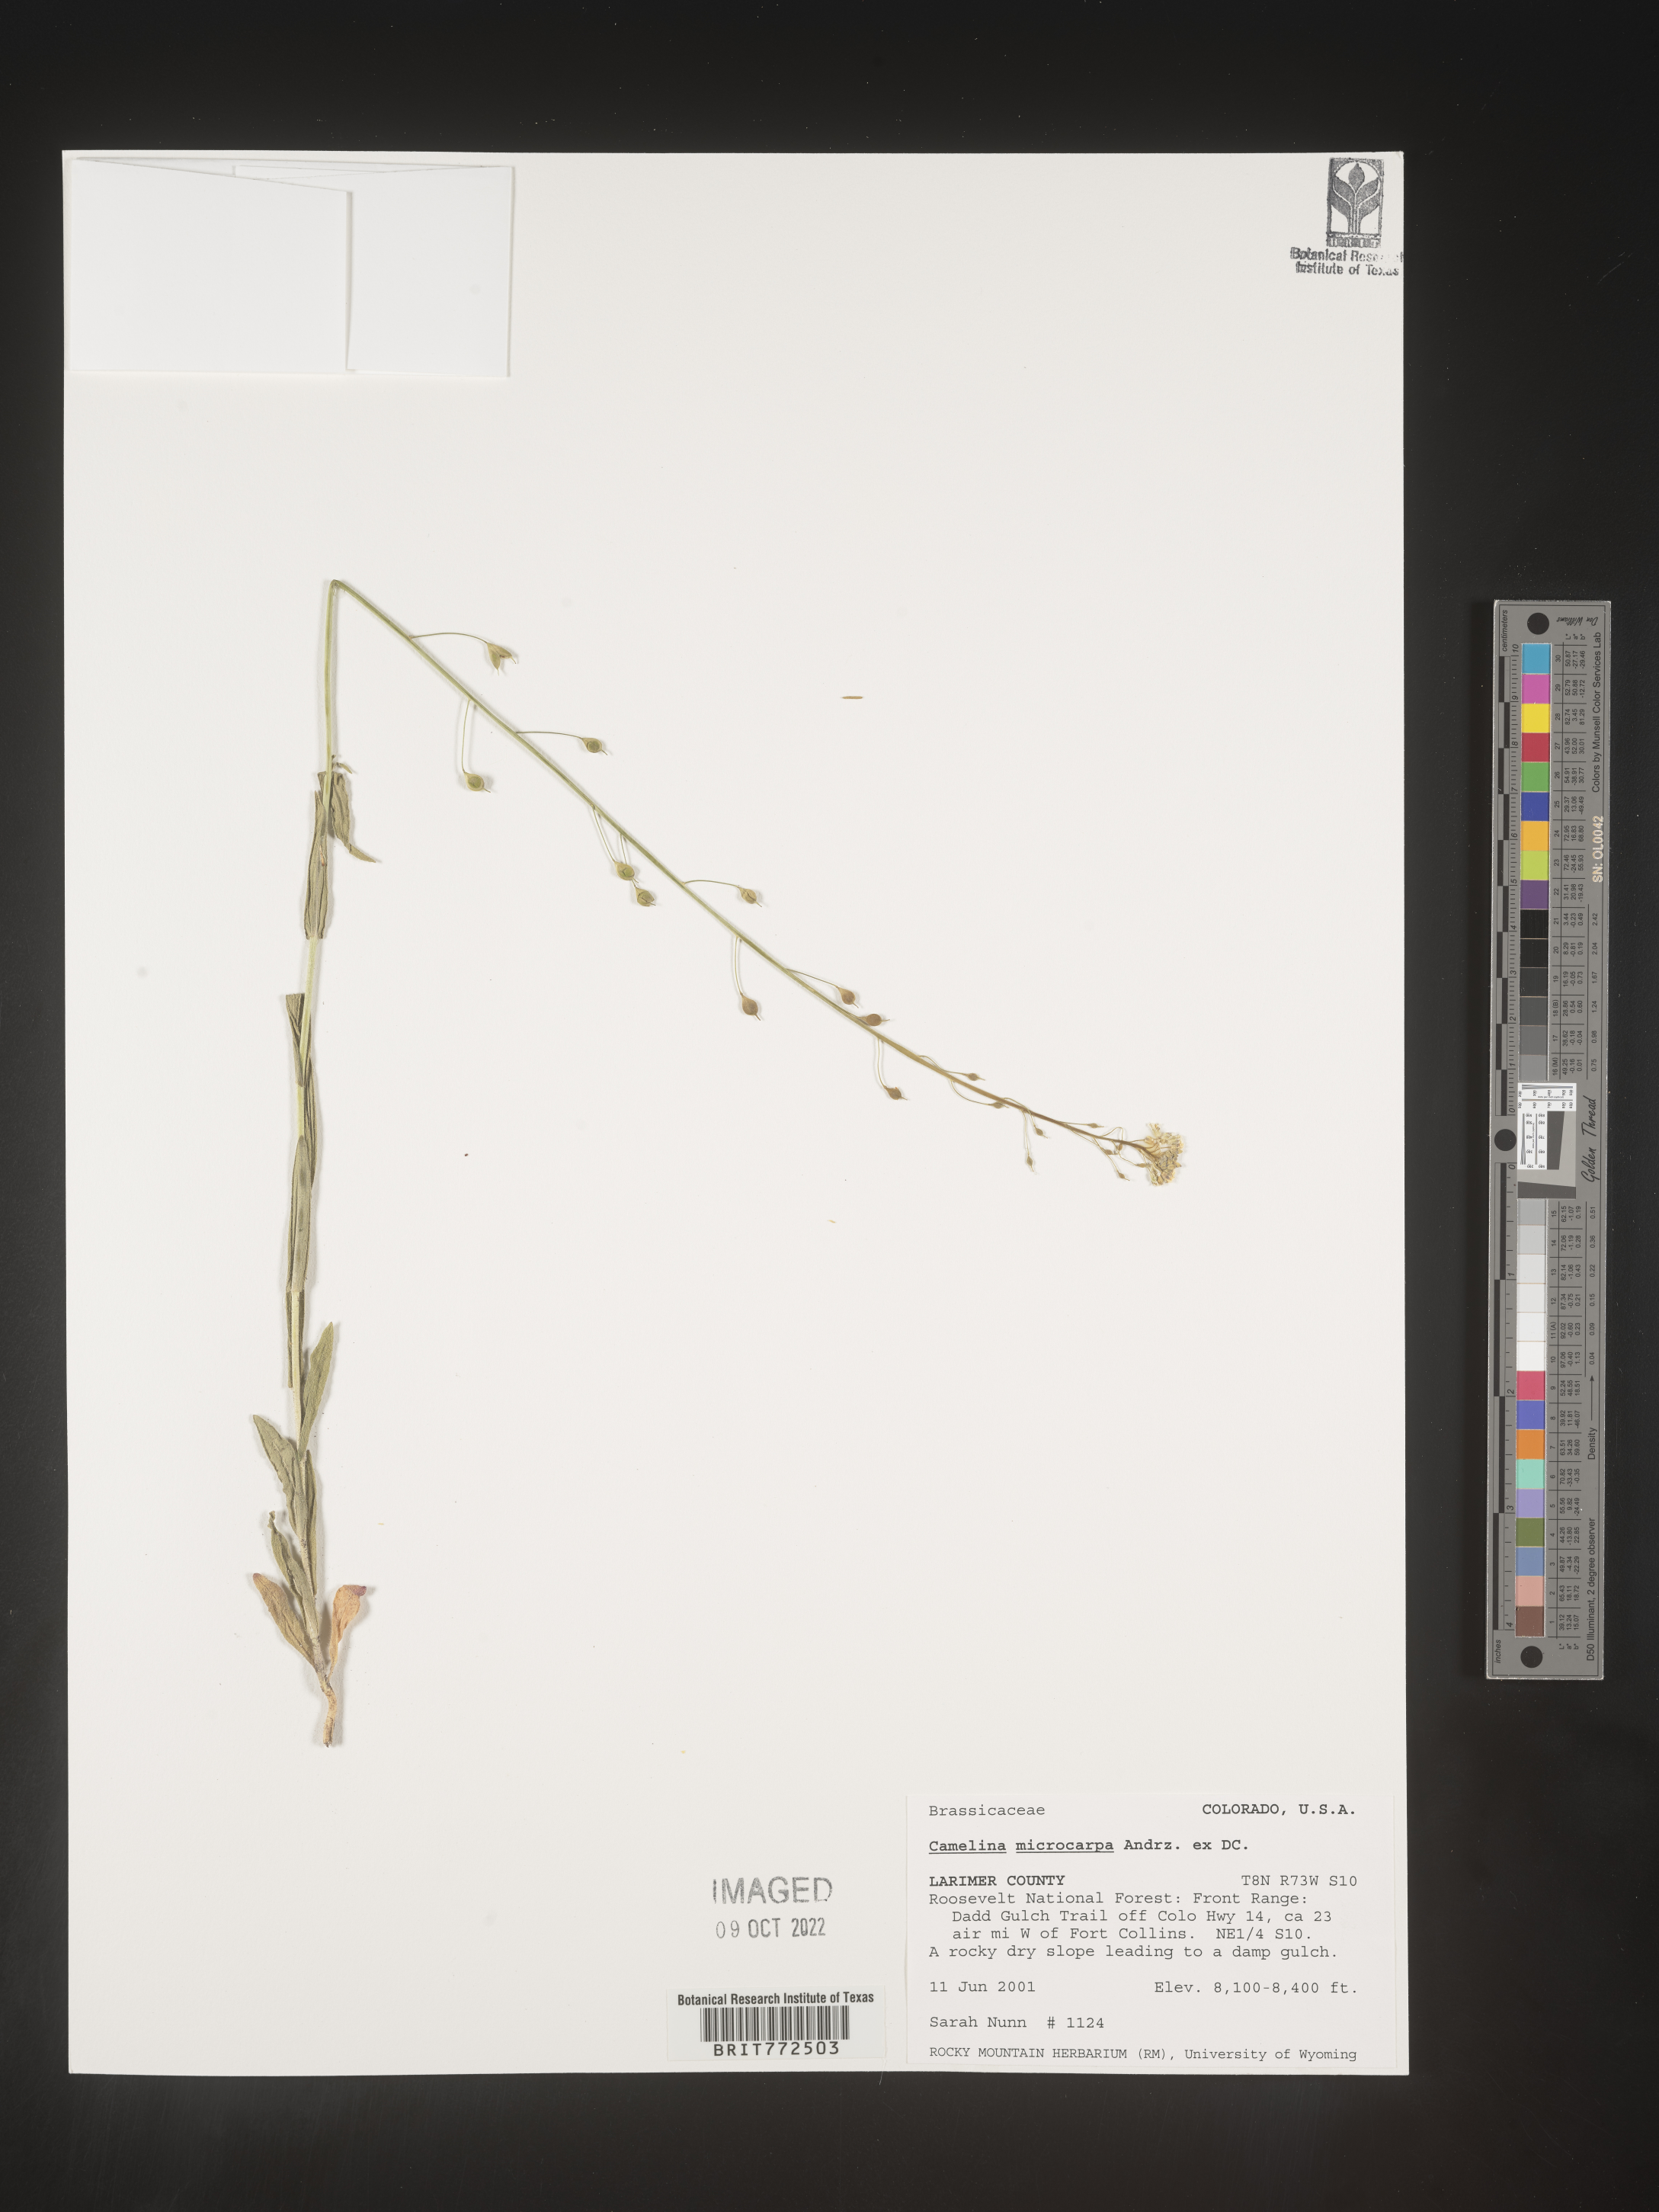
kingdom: Plantae
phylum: Tracheophyta
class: Magnoliopsida
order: Brassicales
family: Brassicaceae
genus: Camelina
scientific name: Camelina microcarpa
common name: Lesser gold-of-pleasure
